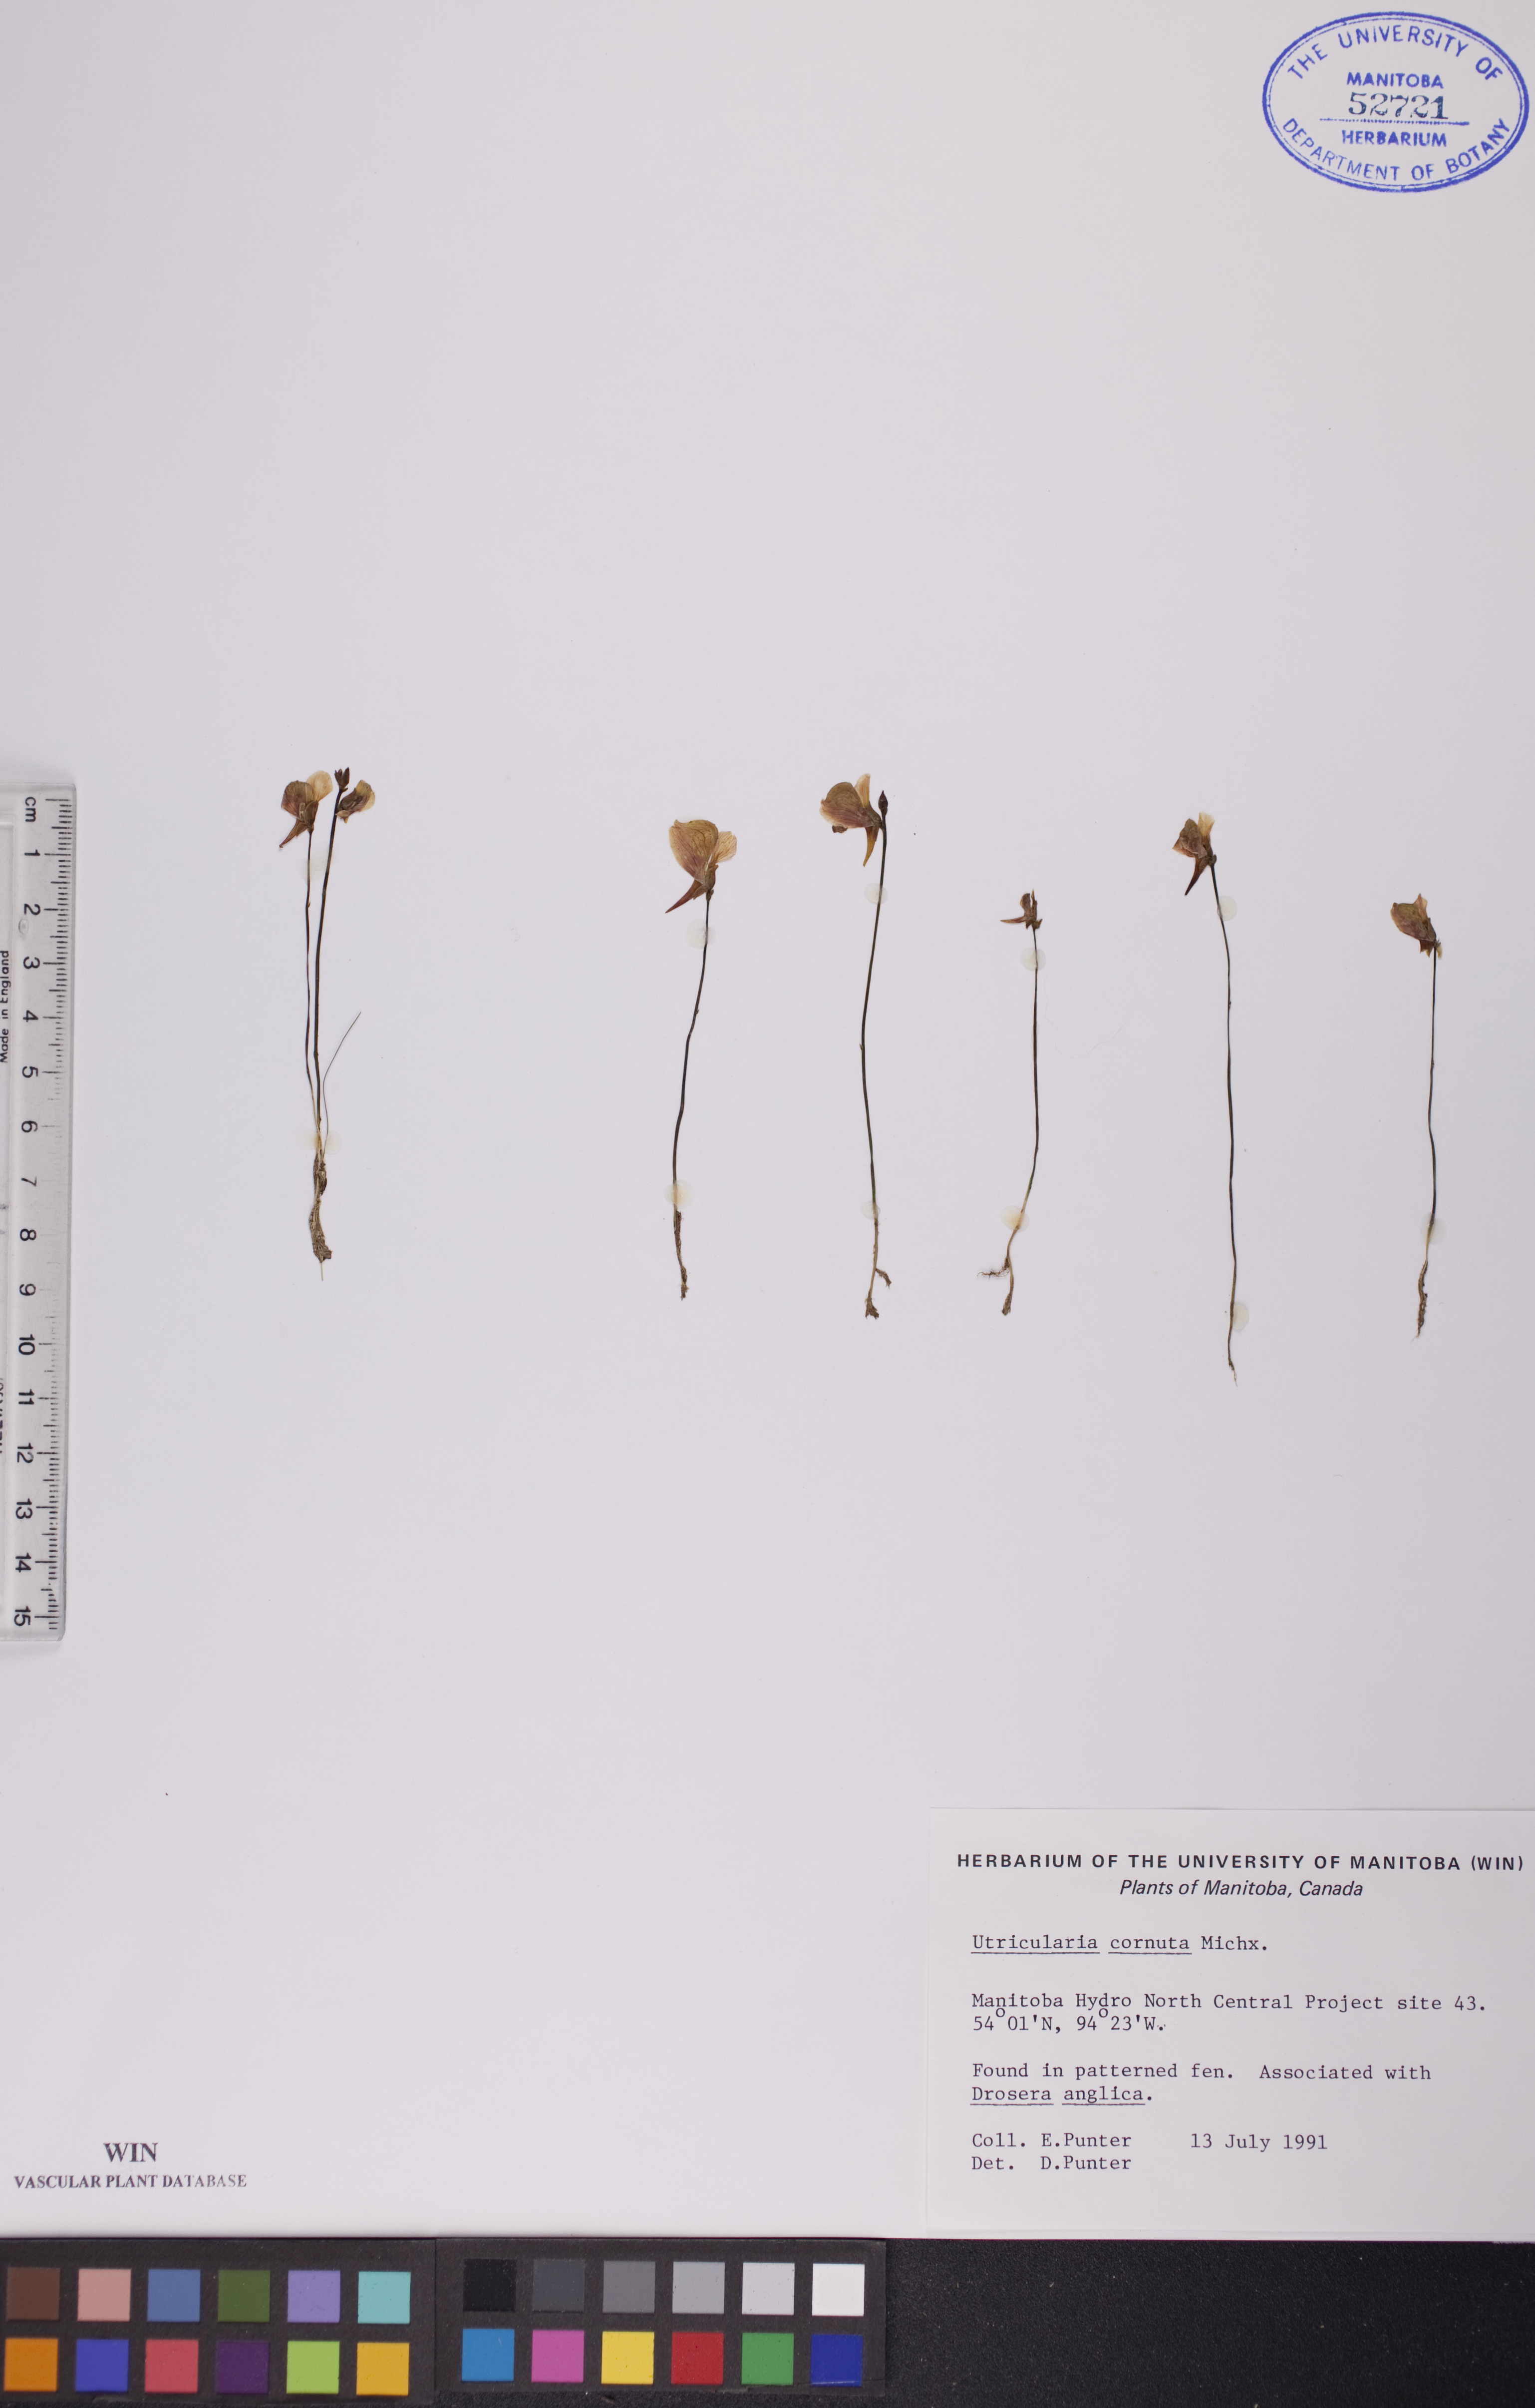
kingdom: Plantae
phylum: Tracheophyta
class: Magnoliopsida
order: Lamiales
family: Lentibulariaceae
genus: Utricularia
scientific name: Utricularia cornuta
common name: Horned bladderwort
